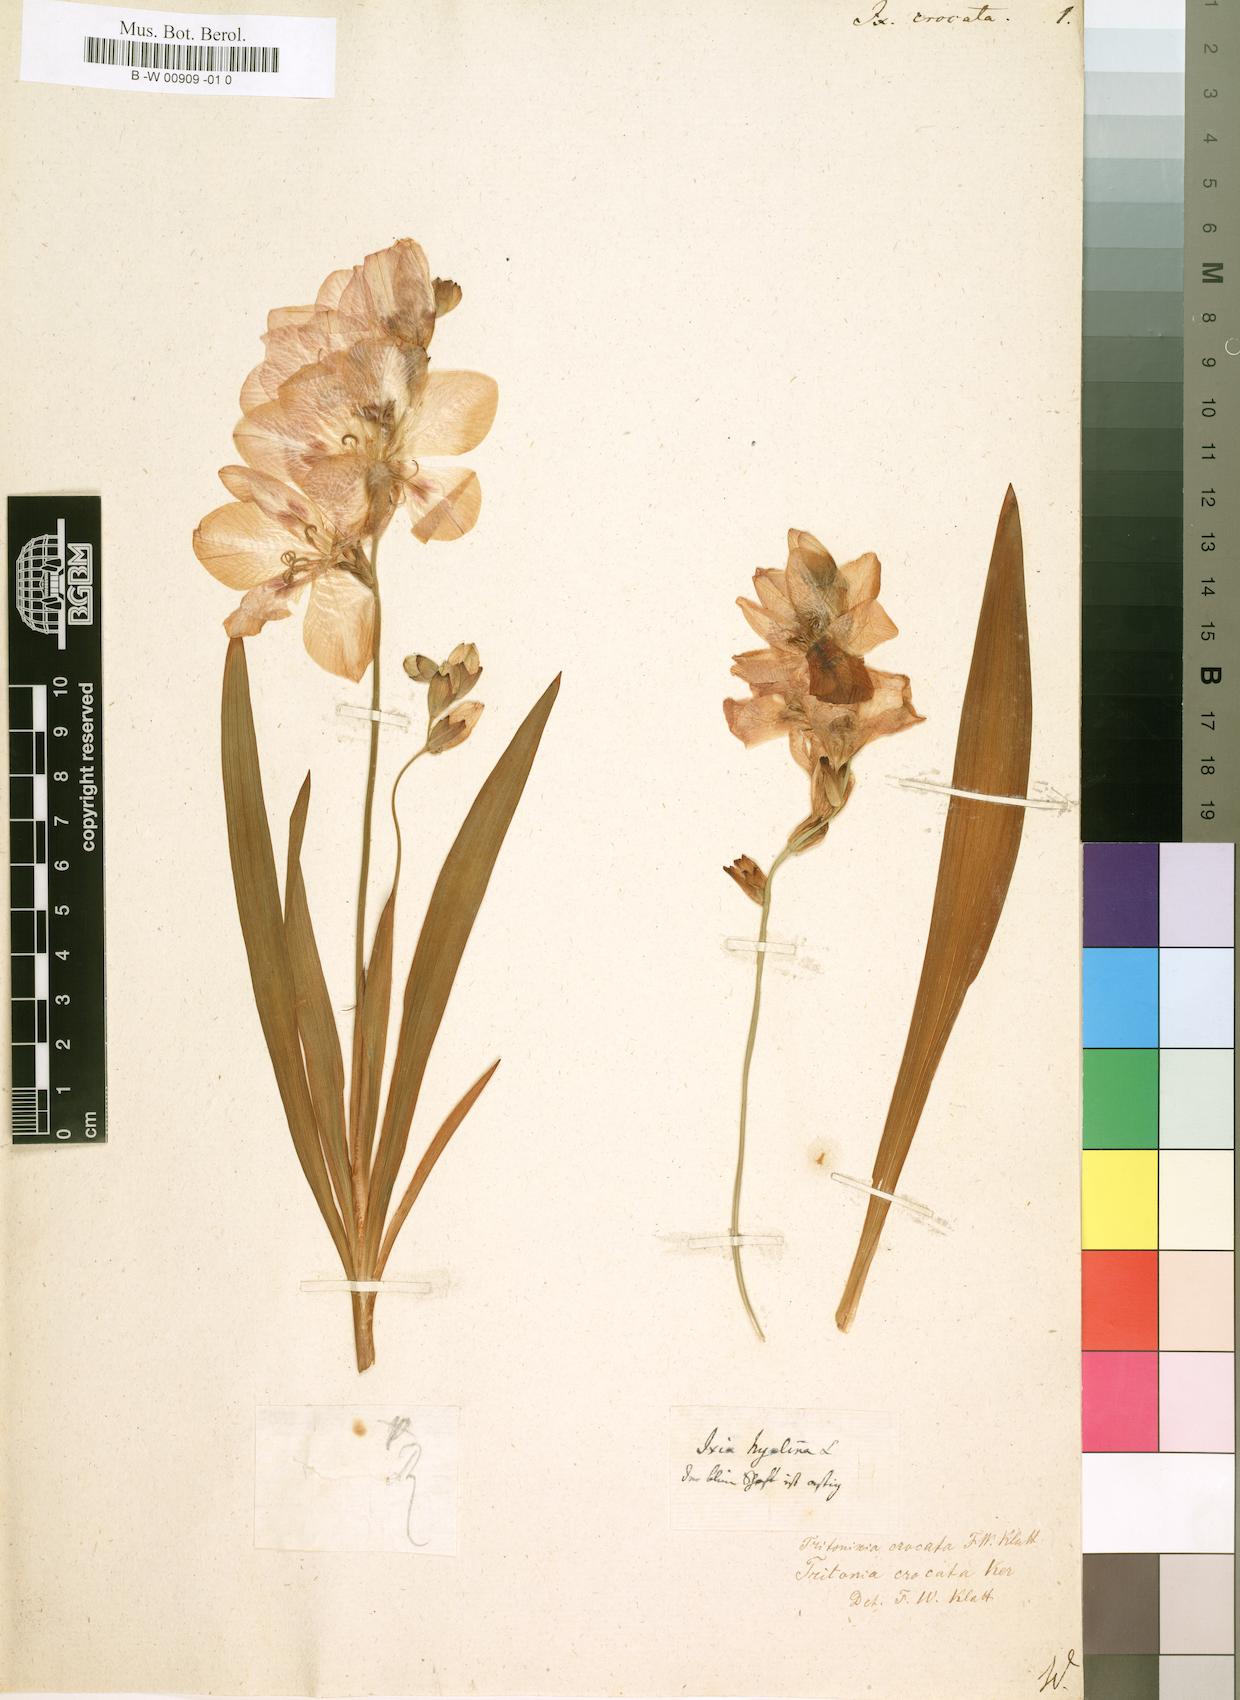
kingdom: Plantae
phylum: Tracheophyta
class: Liliopsida
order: Asparagales
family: Iridaceae
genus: Tritonia
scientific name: Tritonia crocata
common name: Flame-freesia
